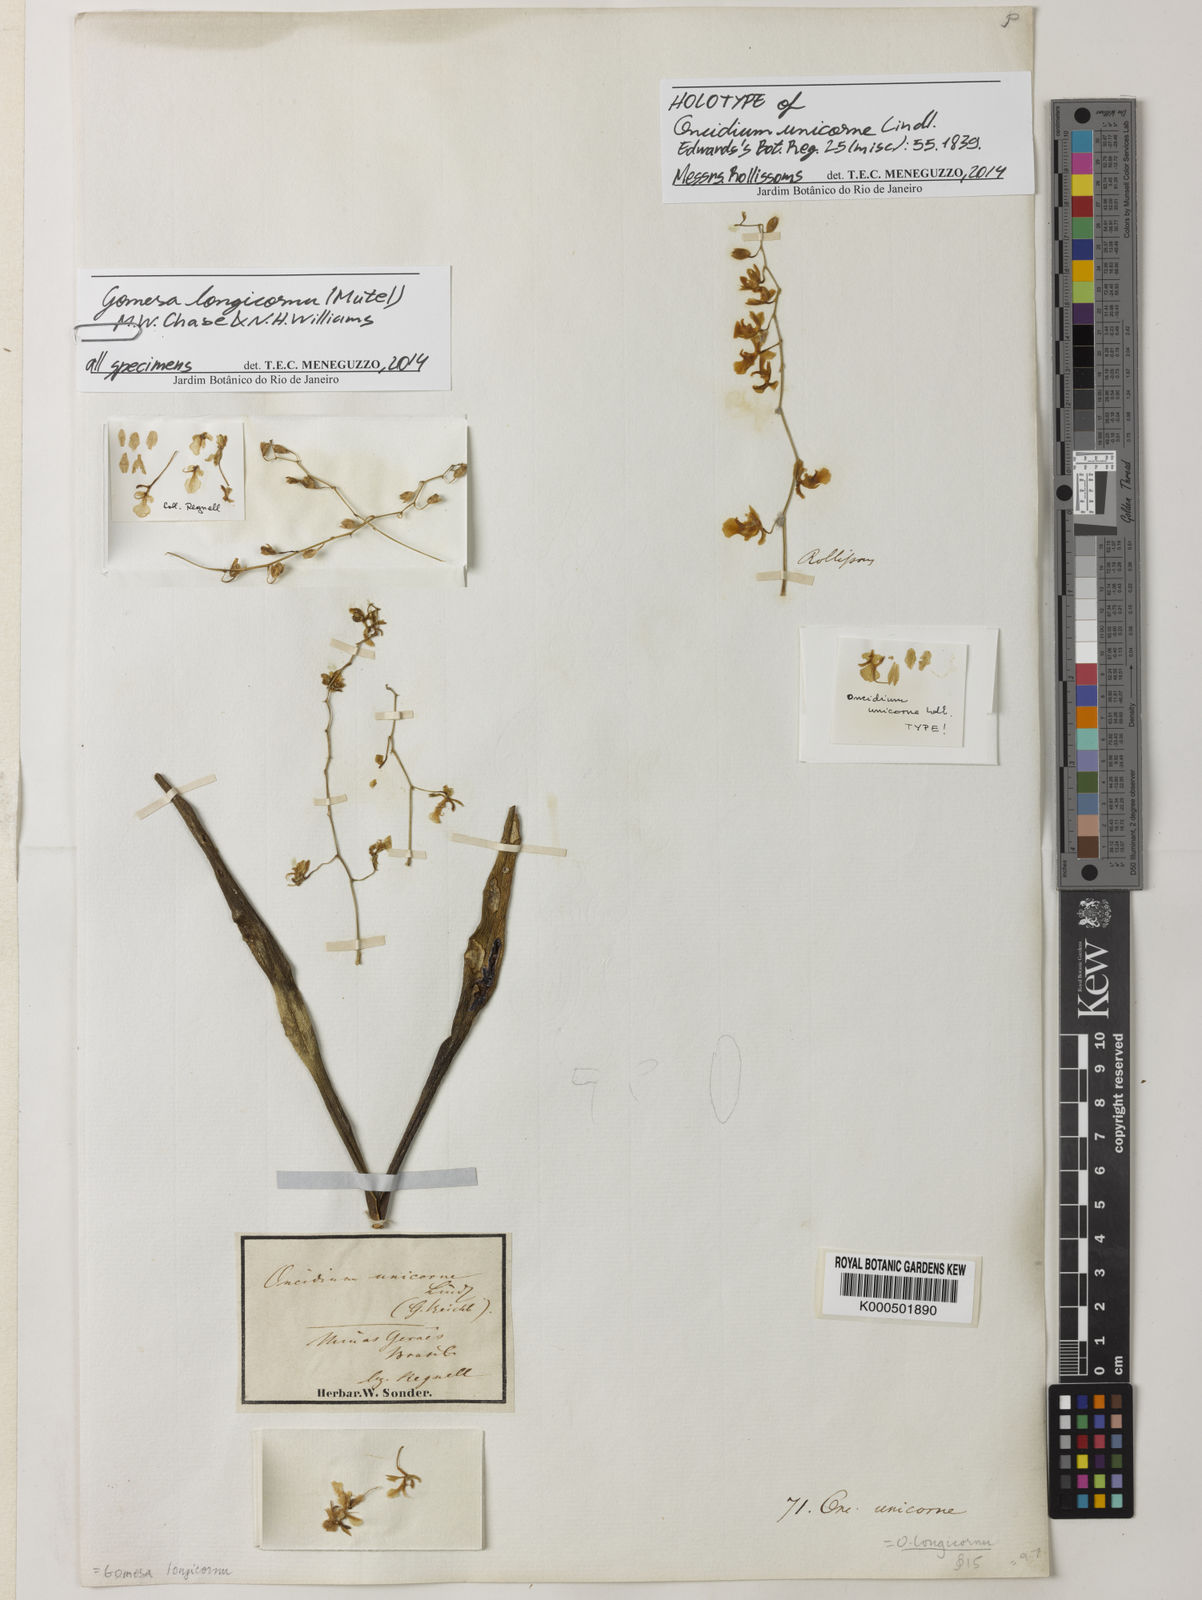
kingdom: Plantae
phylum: Tracheophyta
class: Liliopsida
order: Asparagales
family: Orchidaceae
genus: Gomesa
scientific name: Gomesa florida
